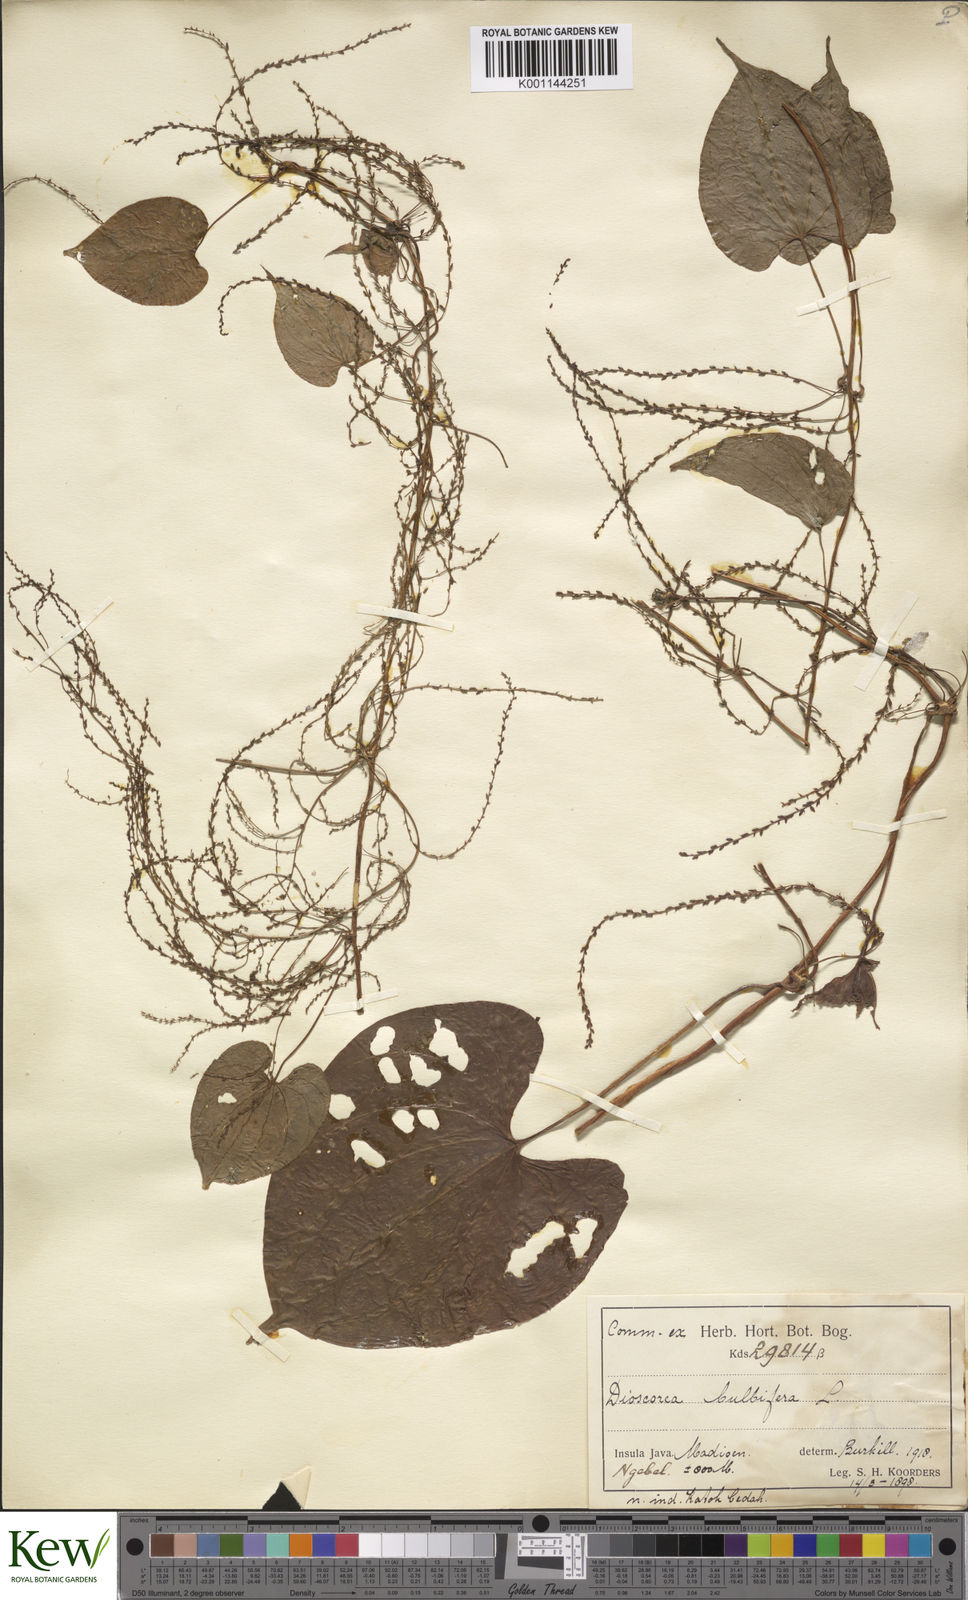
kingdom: Plantae
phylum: Tracheophyta
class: Liliopsida
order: Dioscoreales
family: Dioscoreaceae
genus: Dioscorea
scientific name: Dioscorea bulbifera
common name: Air yam
